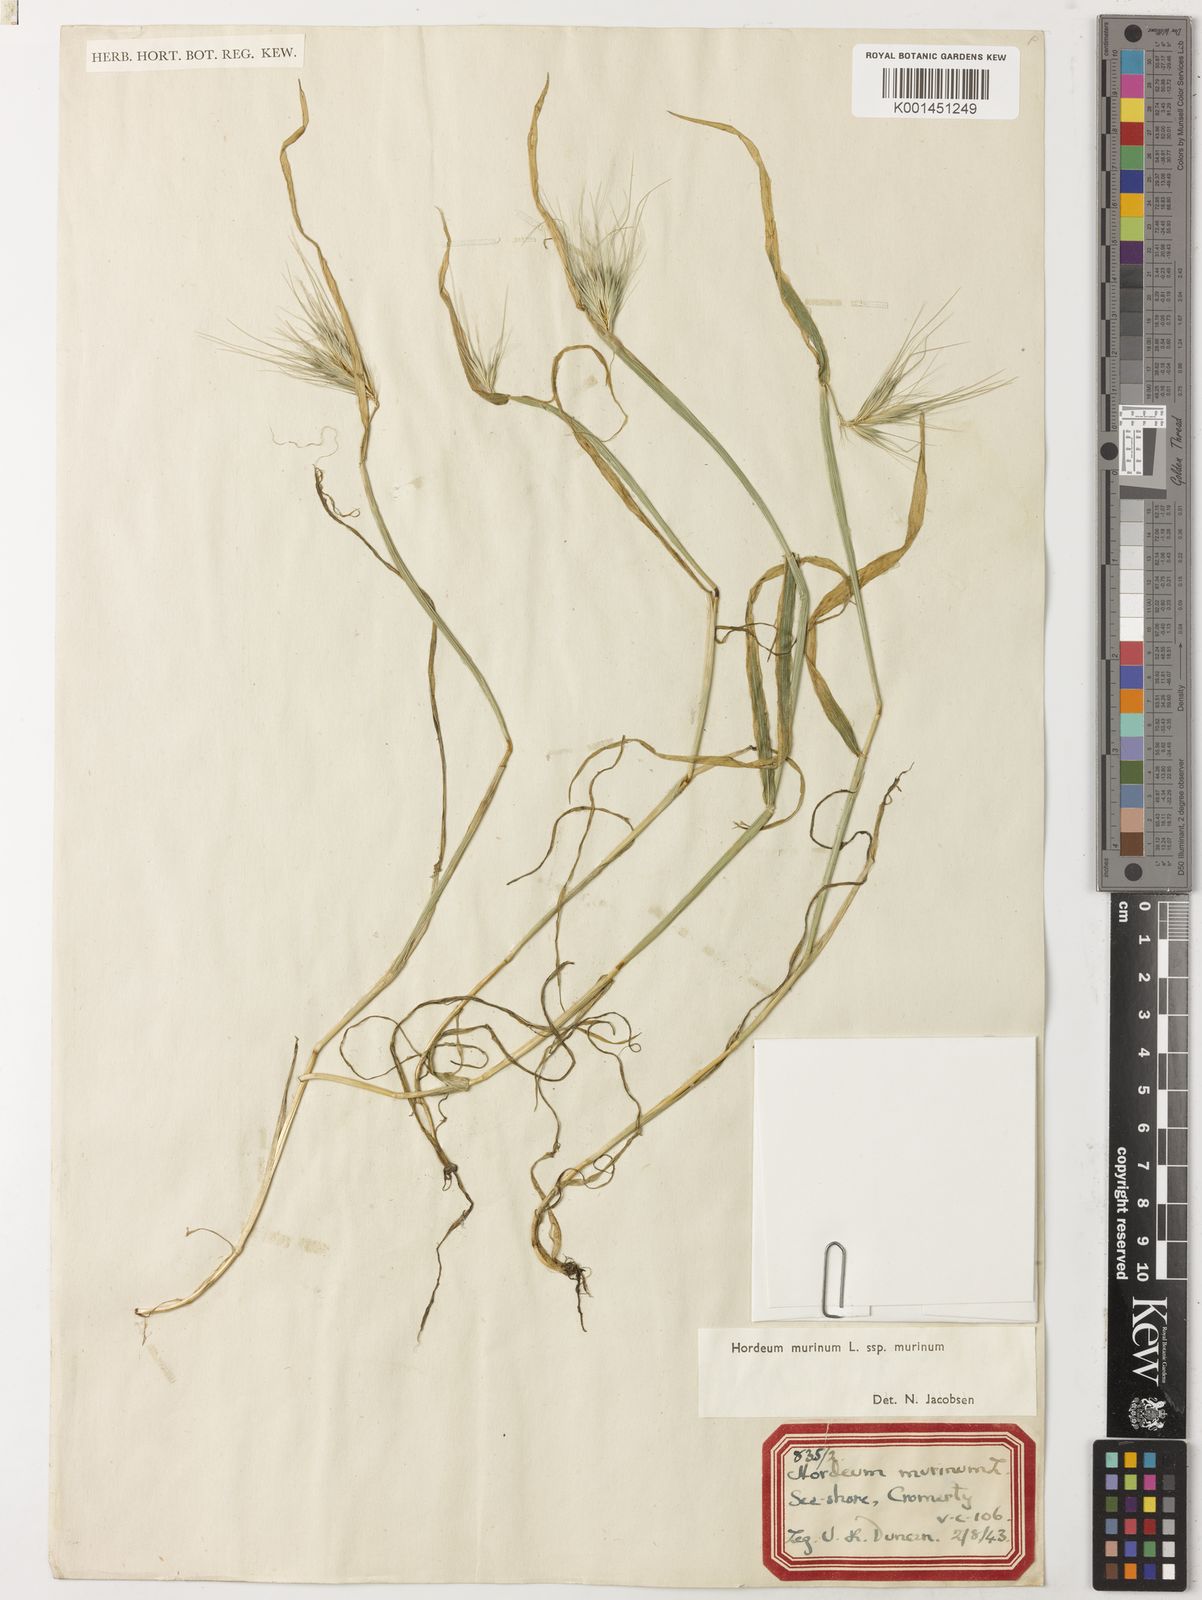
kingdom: Plantae
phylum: Tracheophyta
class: Liliopsida
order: Poales
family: Poaceae
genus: Hordeum
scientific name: Hordeum murinum
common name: Wall barley
